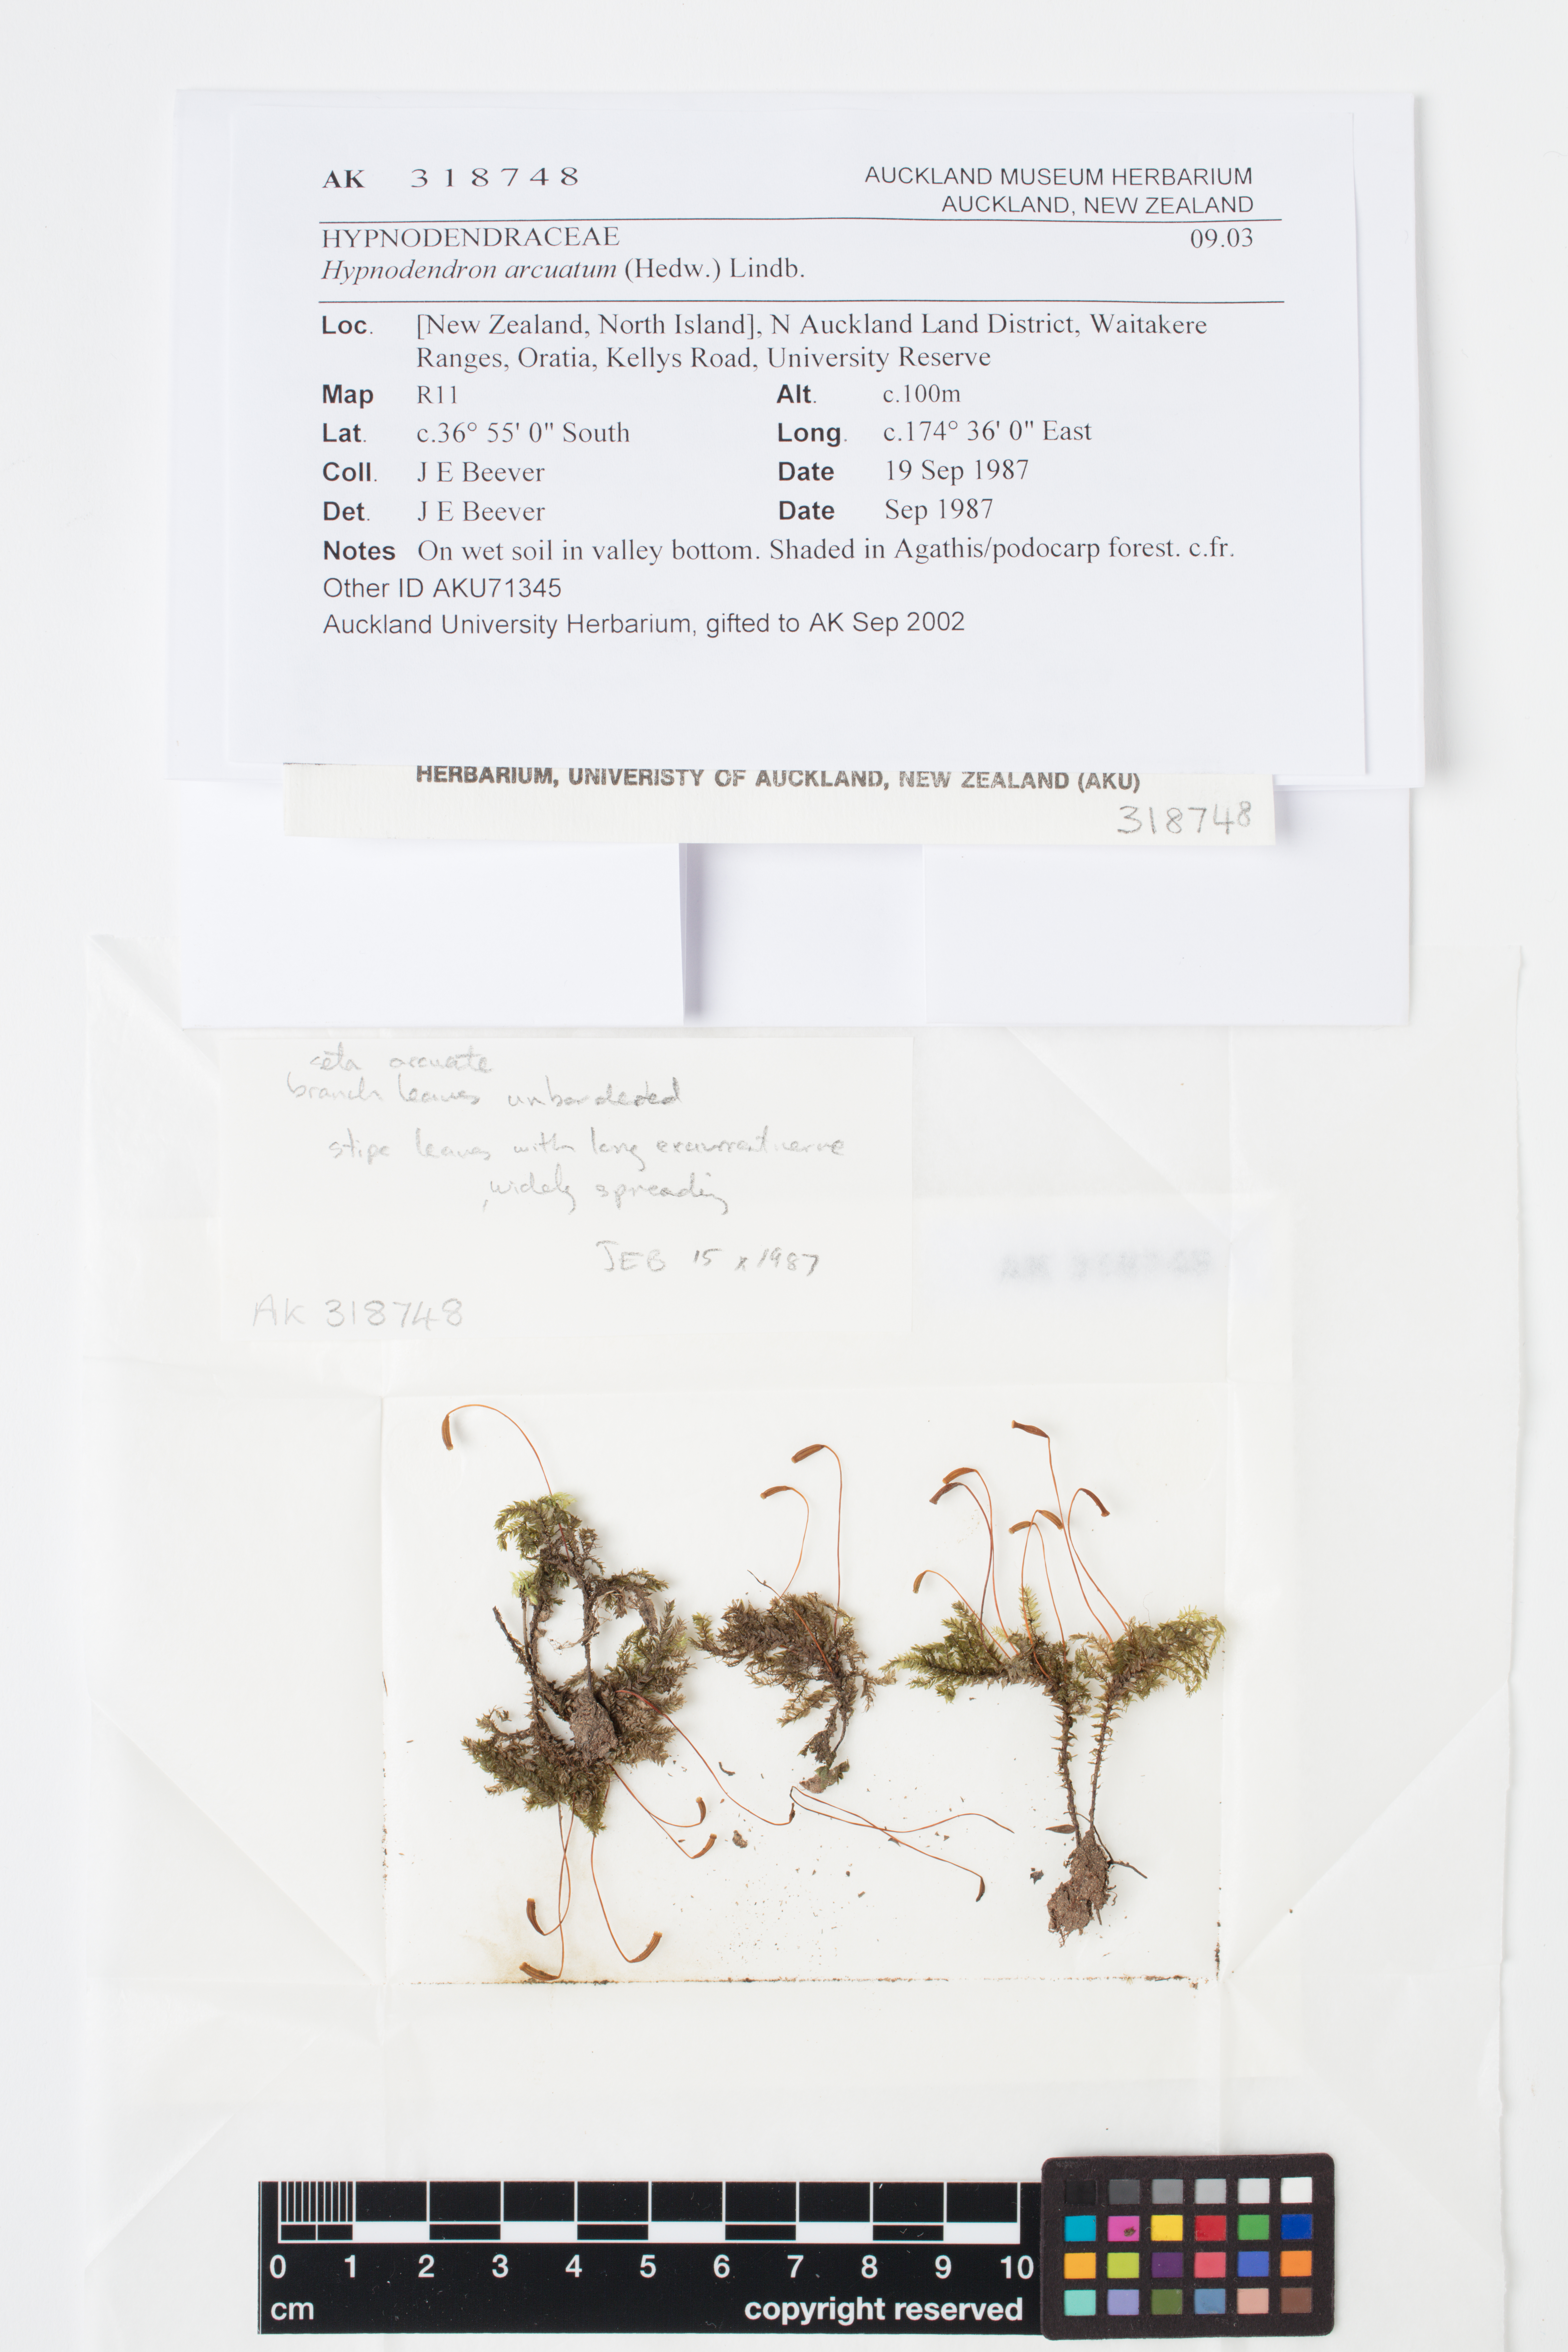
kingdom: Plantae
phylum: Bryophyta
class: Bryopsida
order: Hypnodendrales
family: Spiridentaceae
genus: Hypnodendron
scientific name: Hypnodendron arcuatum
